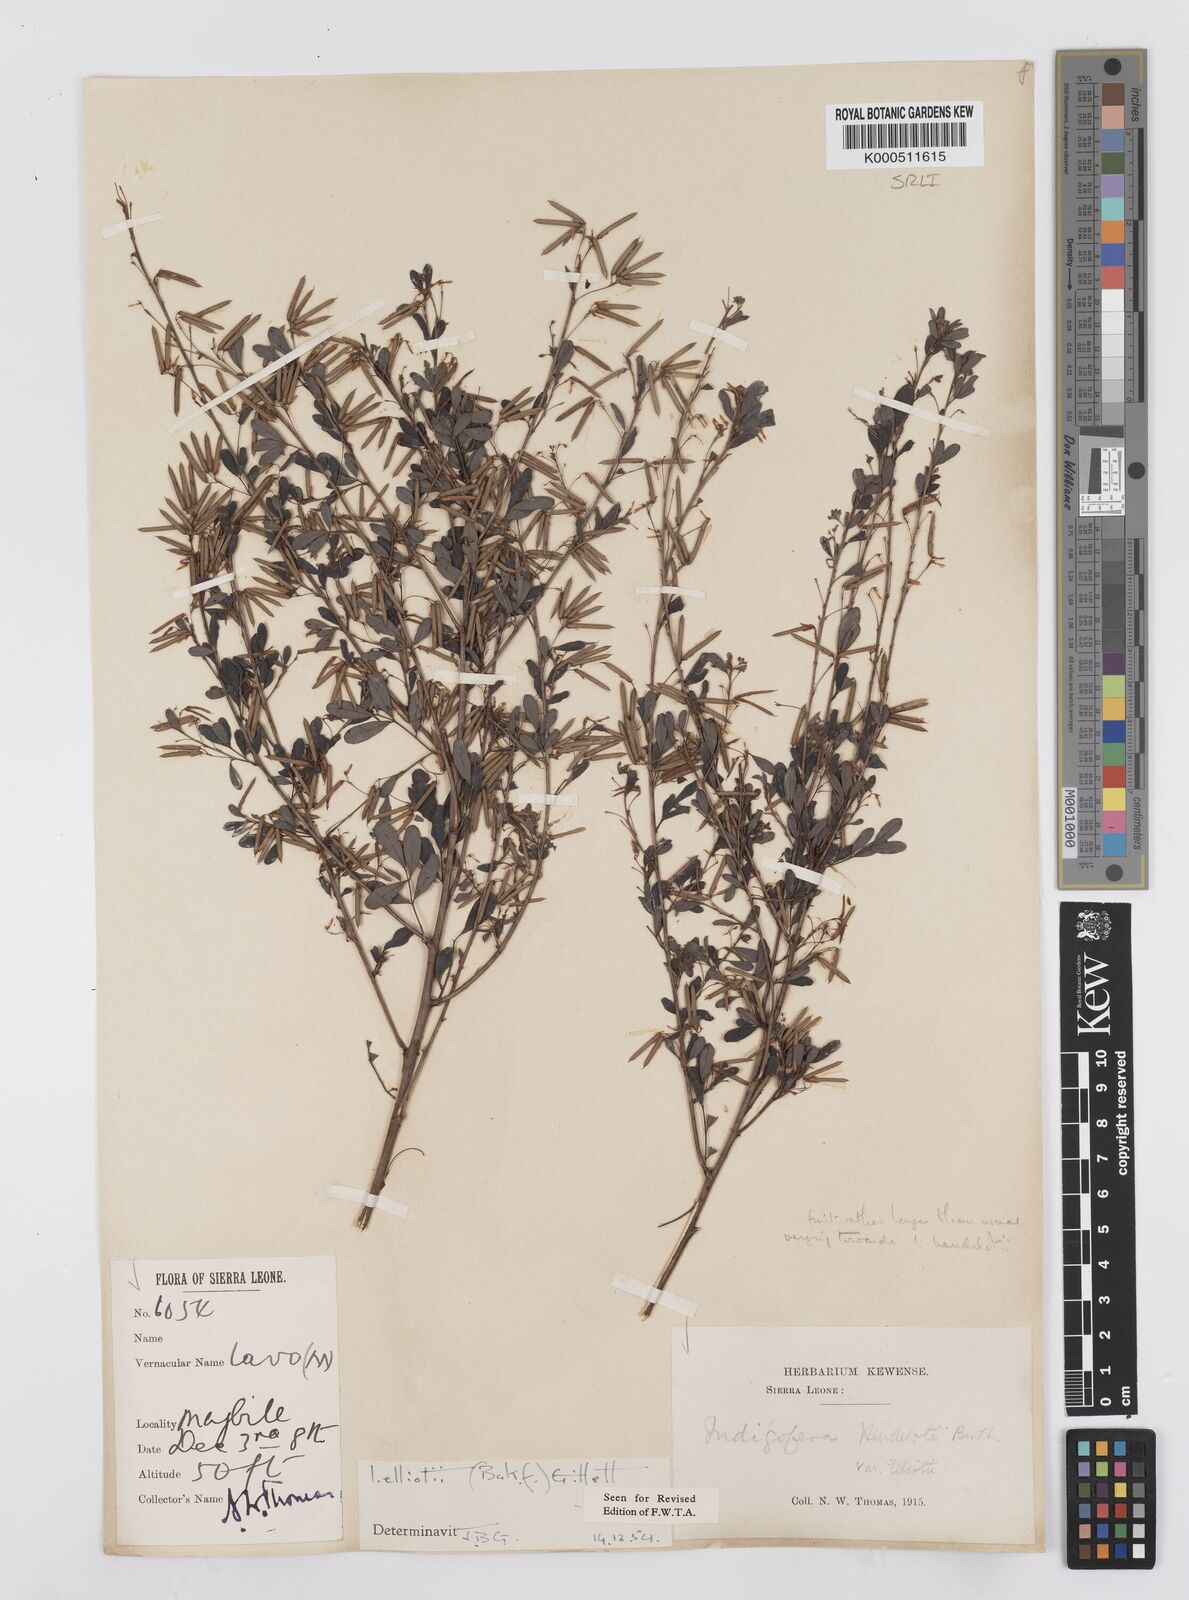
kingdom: Plantae
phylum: Tracheophyta
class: Magnoliopsida
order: Fabales
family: Fabaceae
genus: Indigofera
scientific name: Indigofera elliotii
